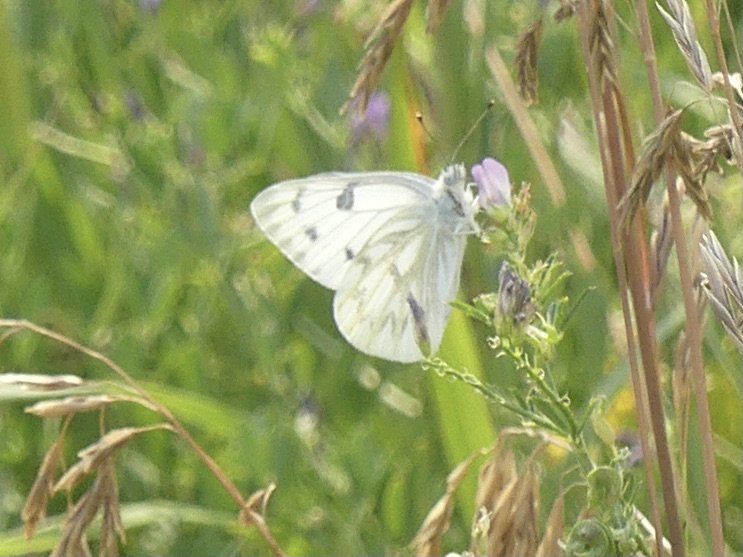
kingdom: Animalia
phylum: Arthropoda
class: Insecta
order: Lepidoptera
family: Pieridae
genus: Pontia
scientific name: Pontia occidentalis
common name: Western White
